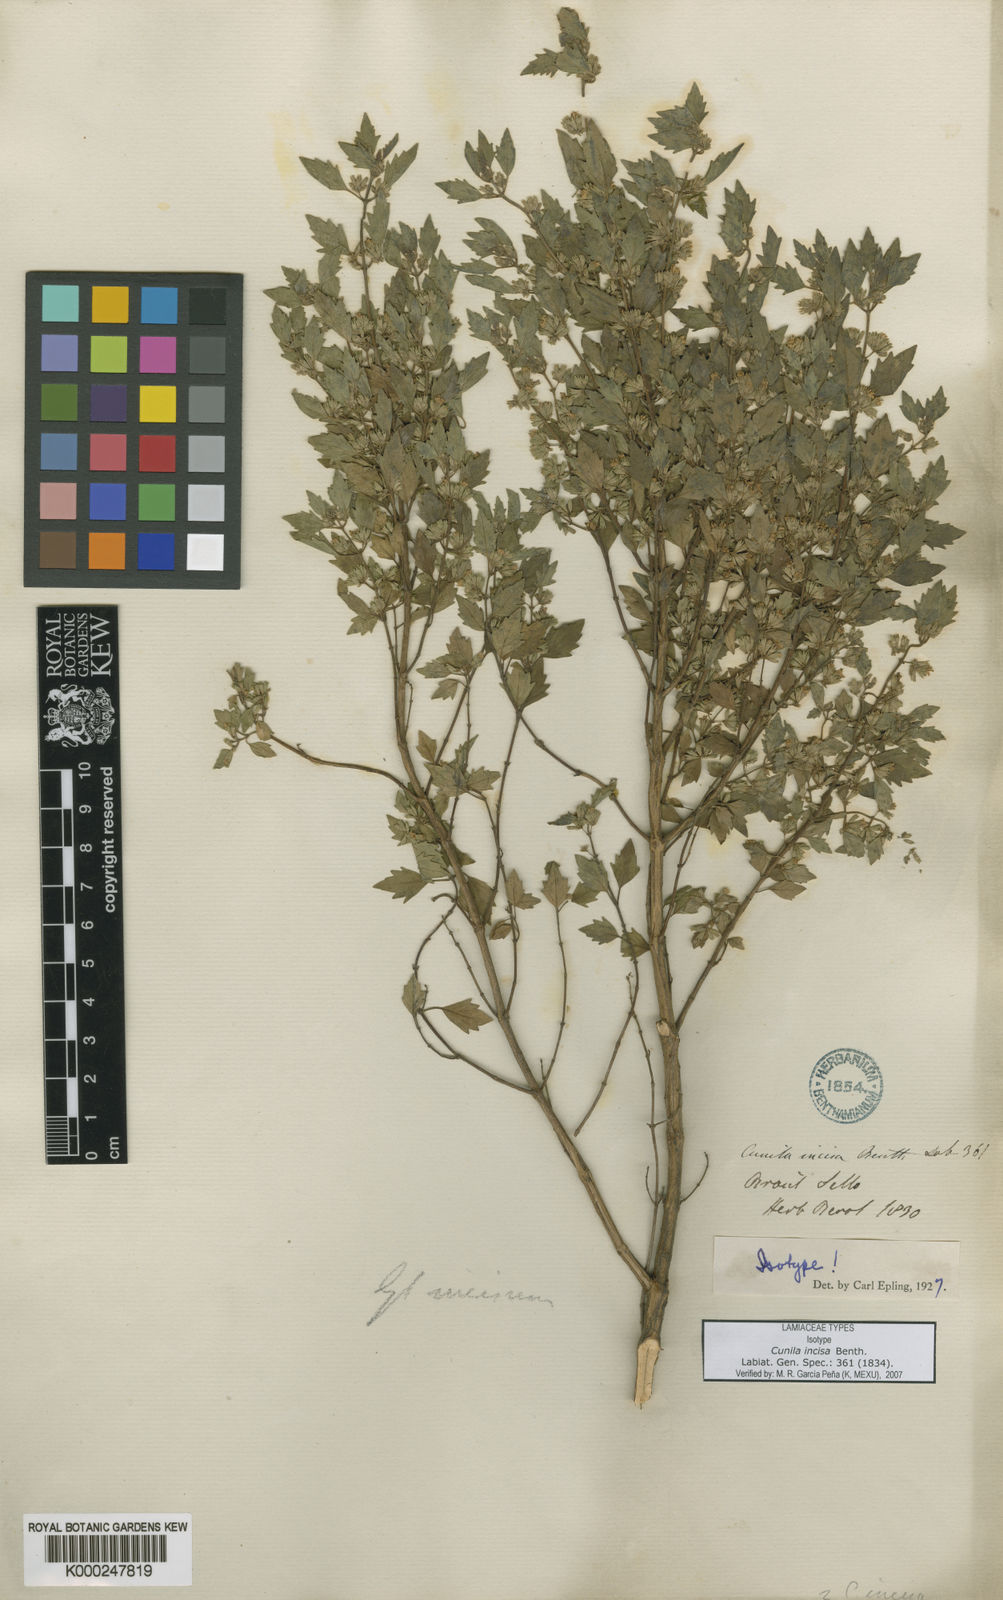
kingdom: Plantae
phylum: Tracheophyta
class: Magnoliopsida
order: Lamiales
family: Lamiaceae
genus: Cunila
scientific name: Cunila incisa
